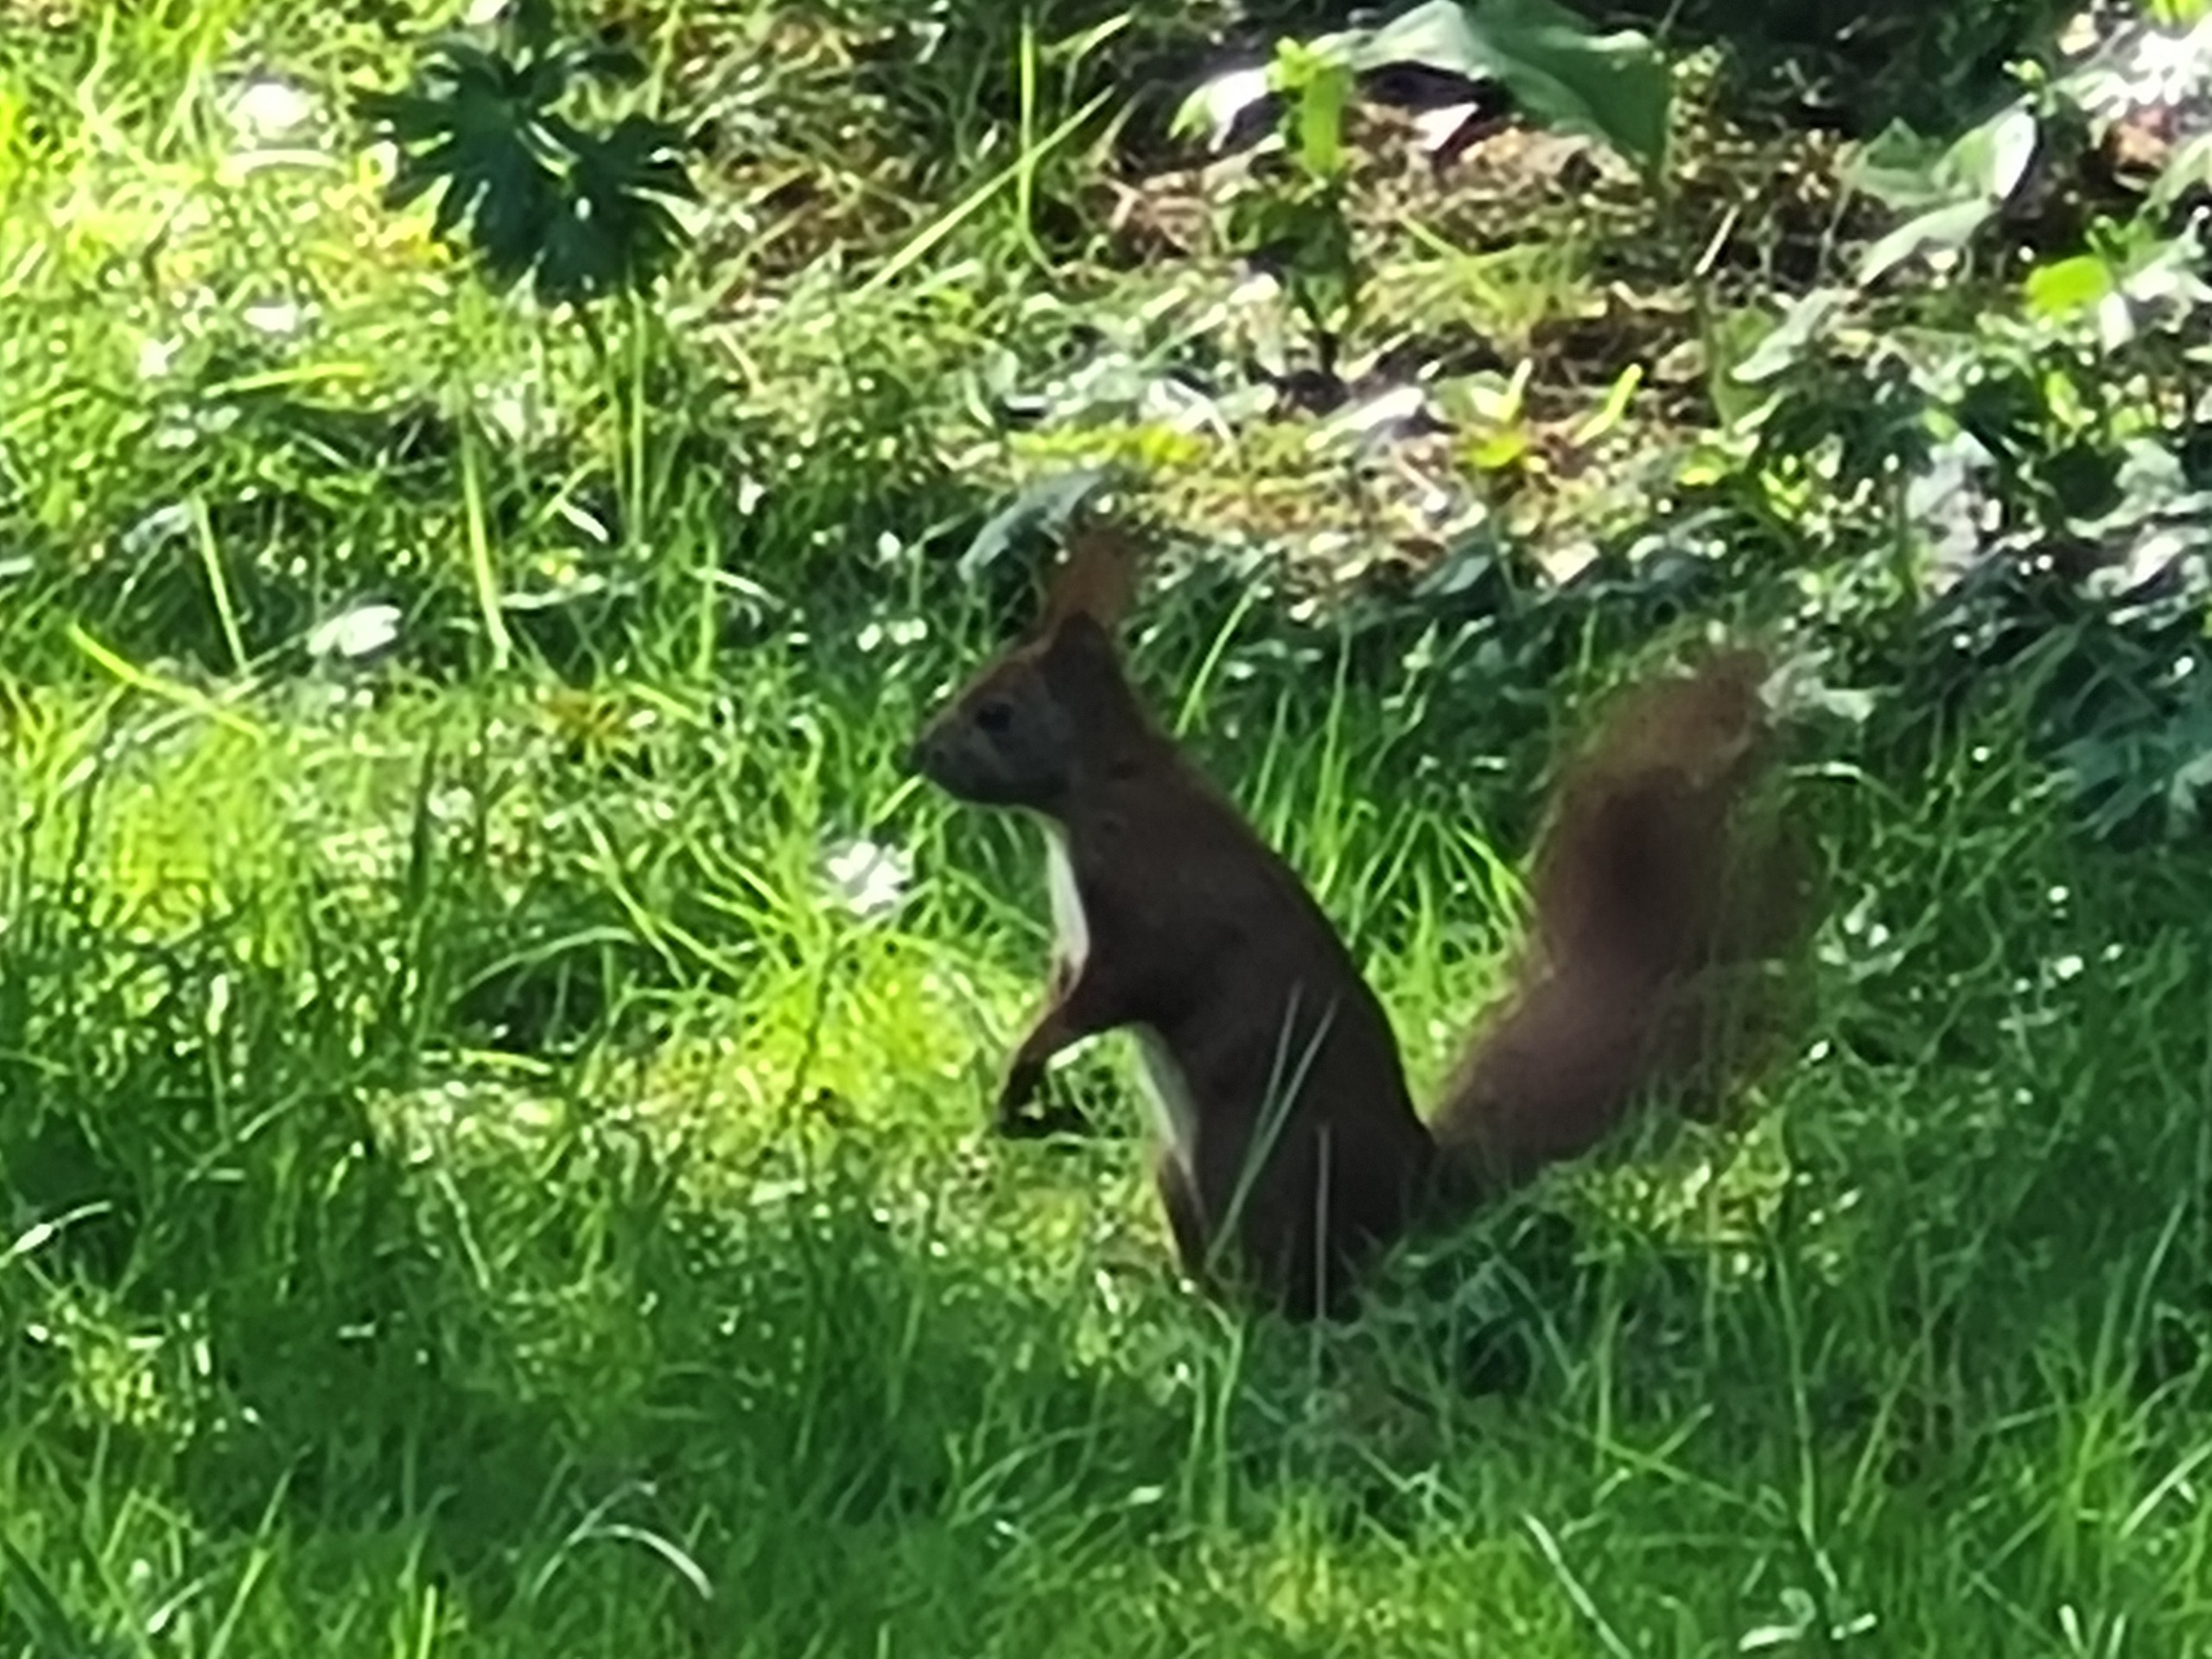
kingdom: Animalia
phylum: Chordata
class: Mammalia
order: Rodentia
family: Sciuridae
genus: Sciurus
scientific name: Sciurus vulgaris
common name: Egern
